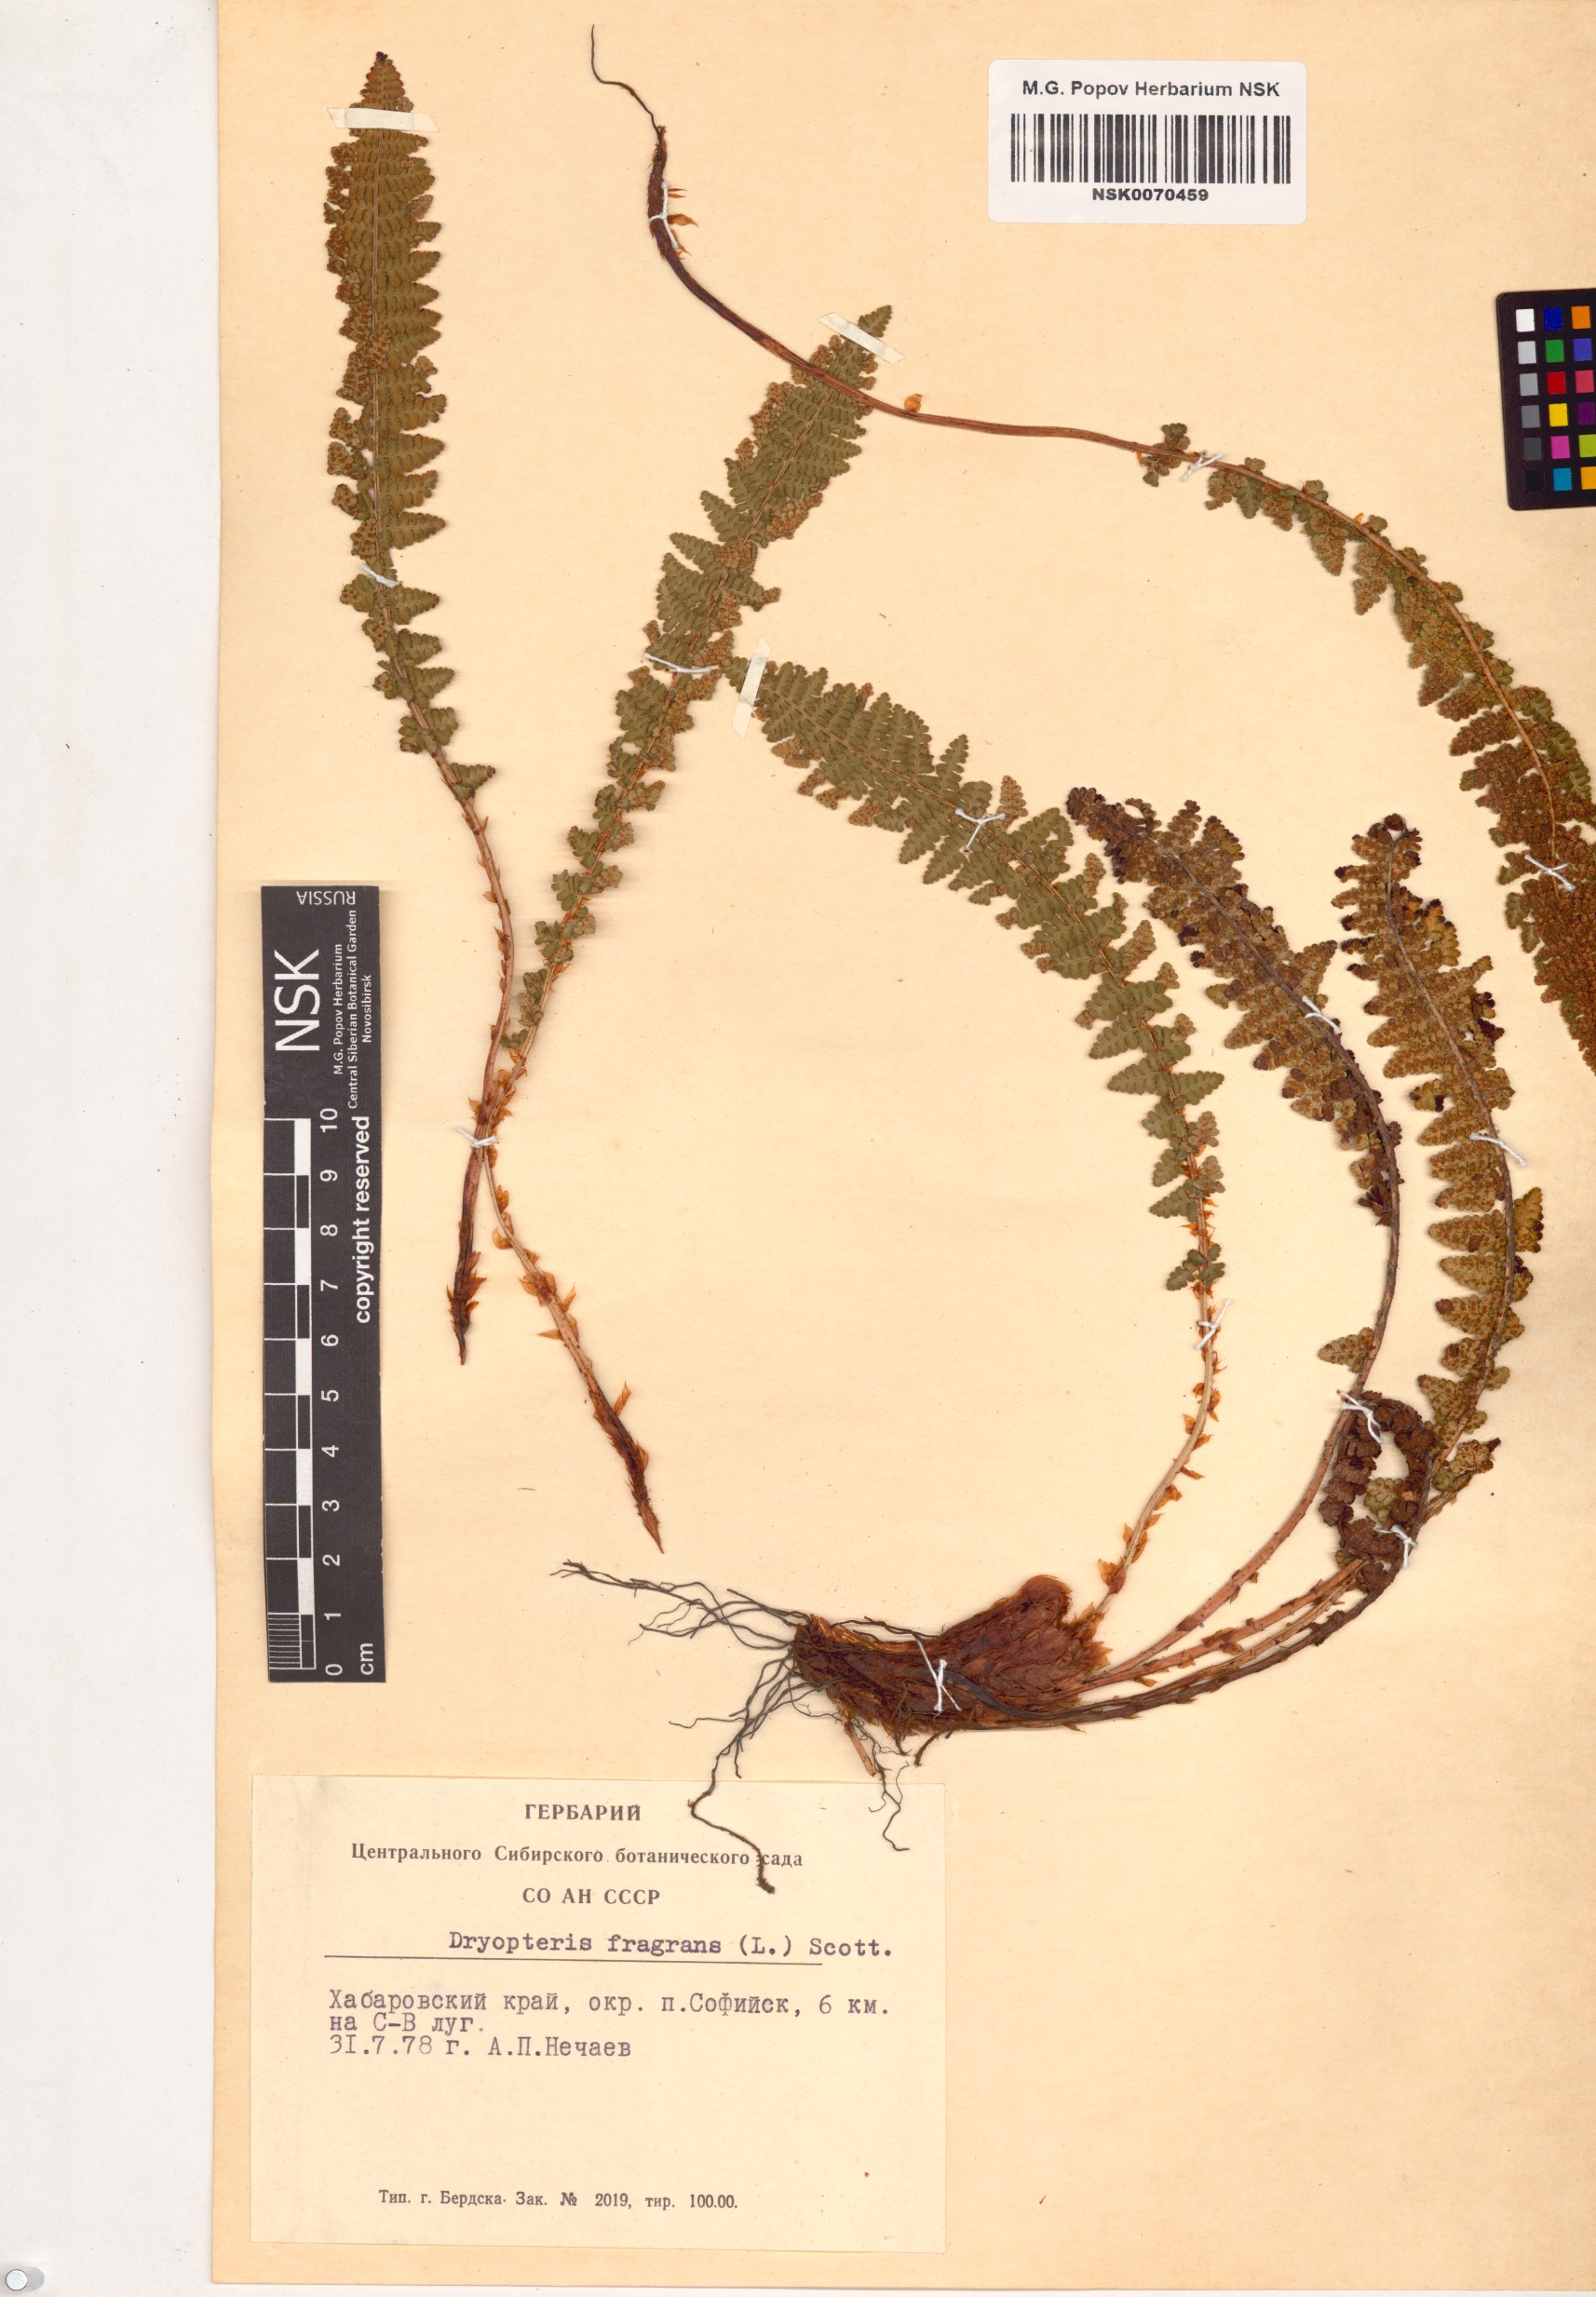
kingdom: Plantae
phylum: Tracheophyta
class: Polypodiopsida
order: Polypodiales
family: Dryopteridaceae
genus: Dryopteris
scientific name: Dryopteris fragrans
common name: Fragrant wood fern
